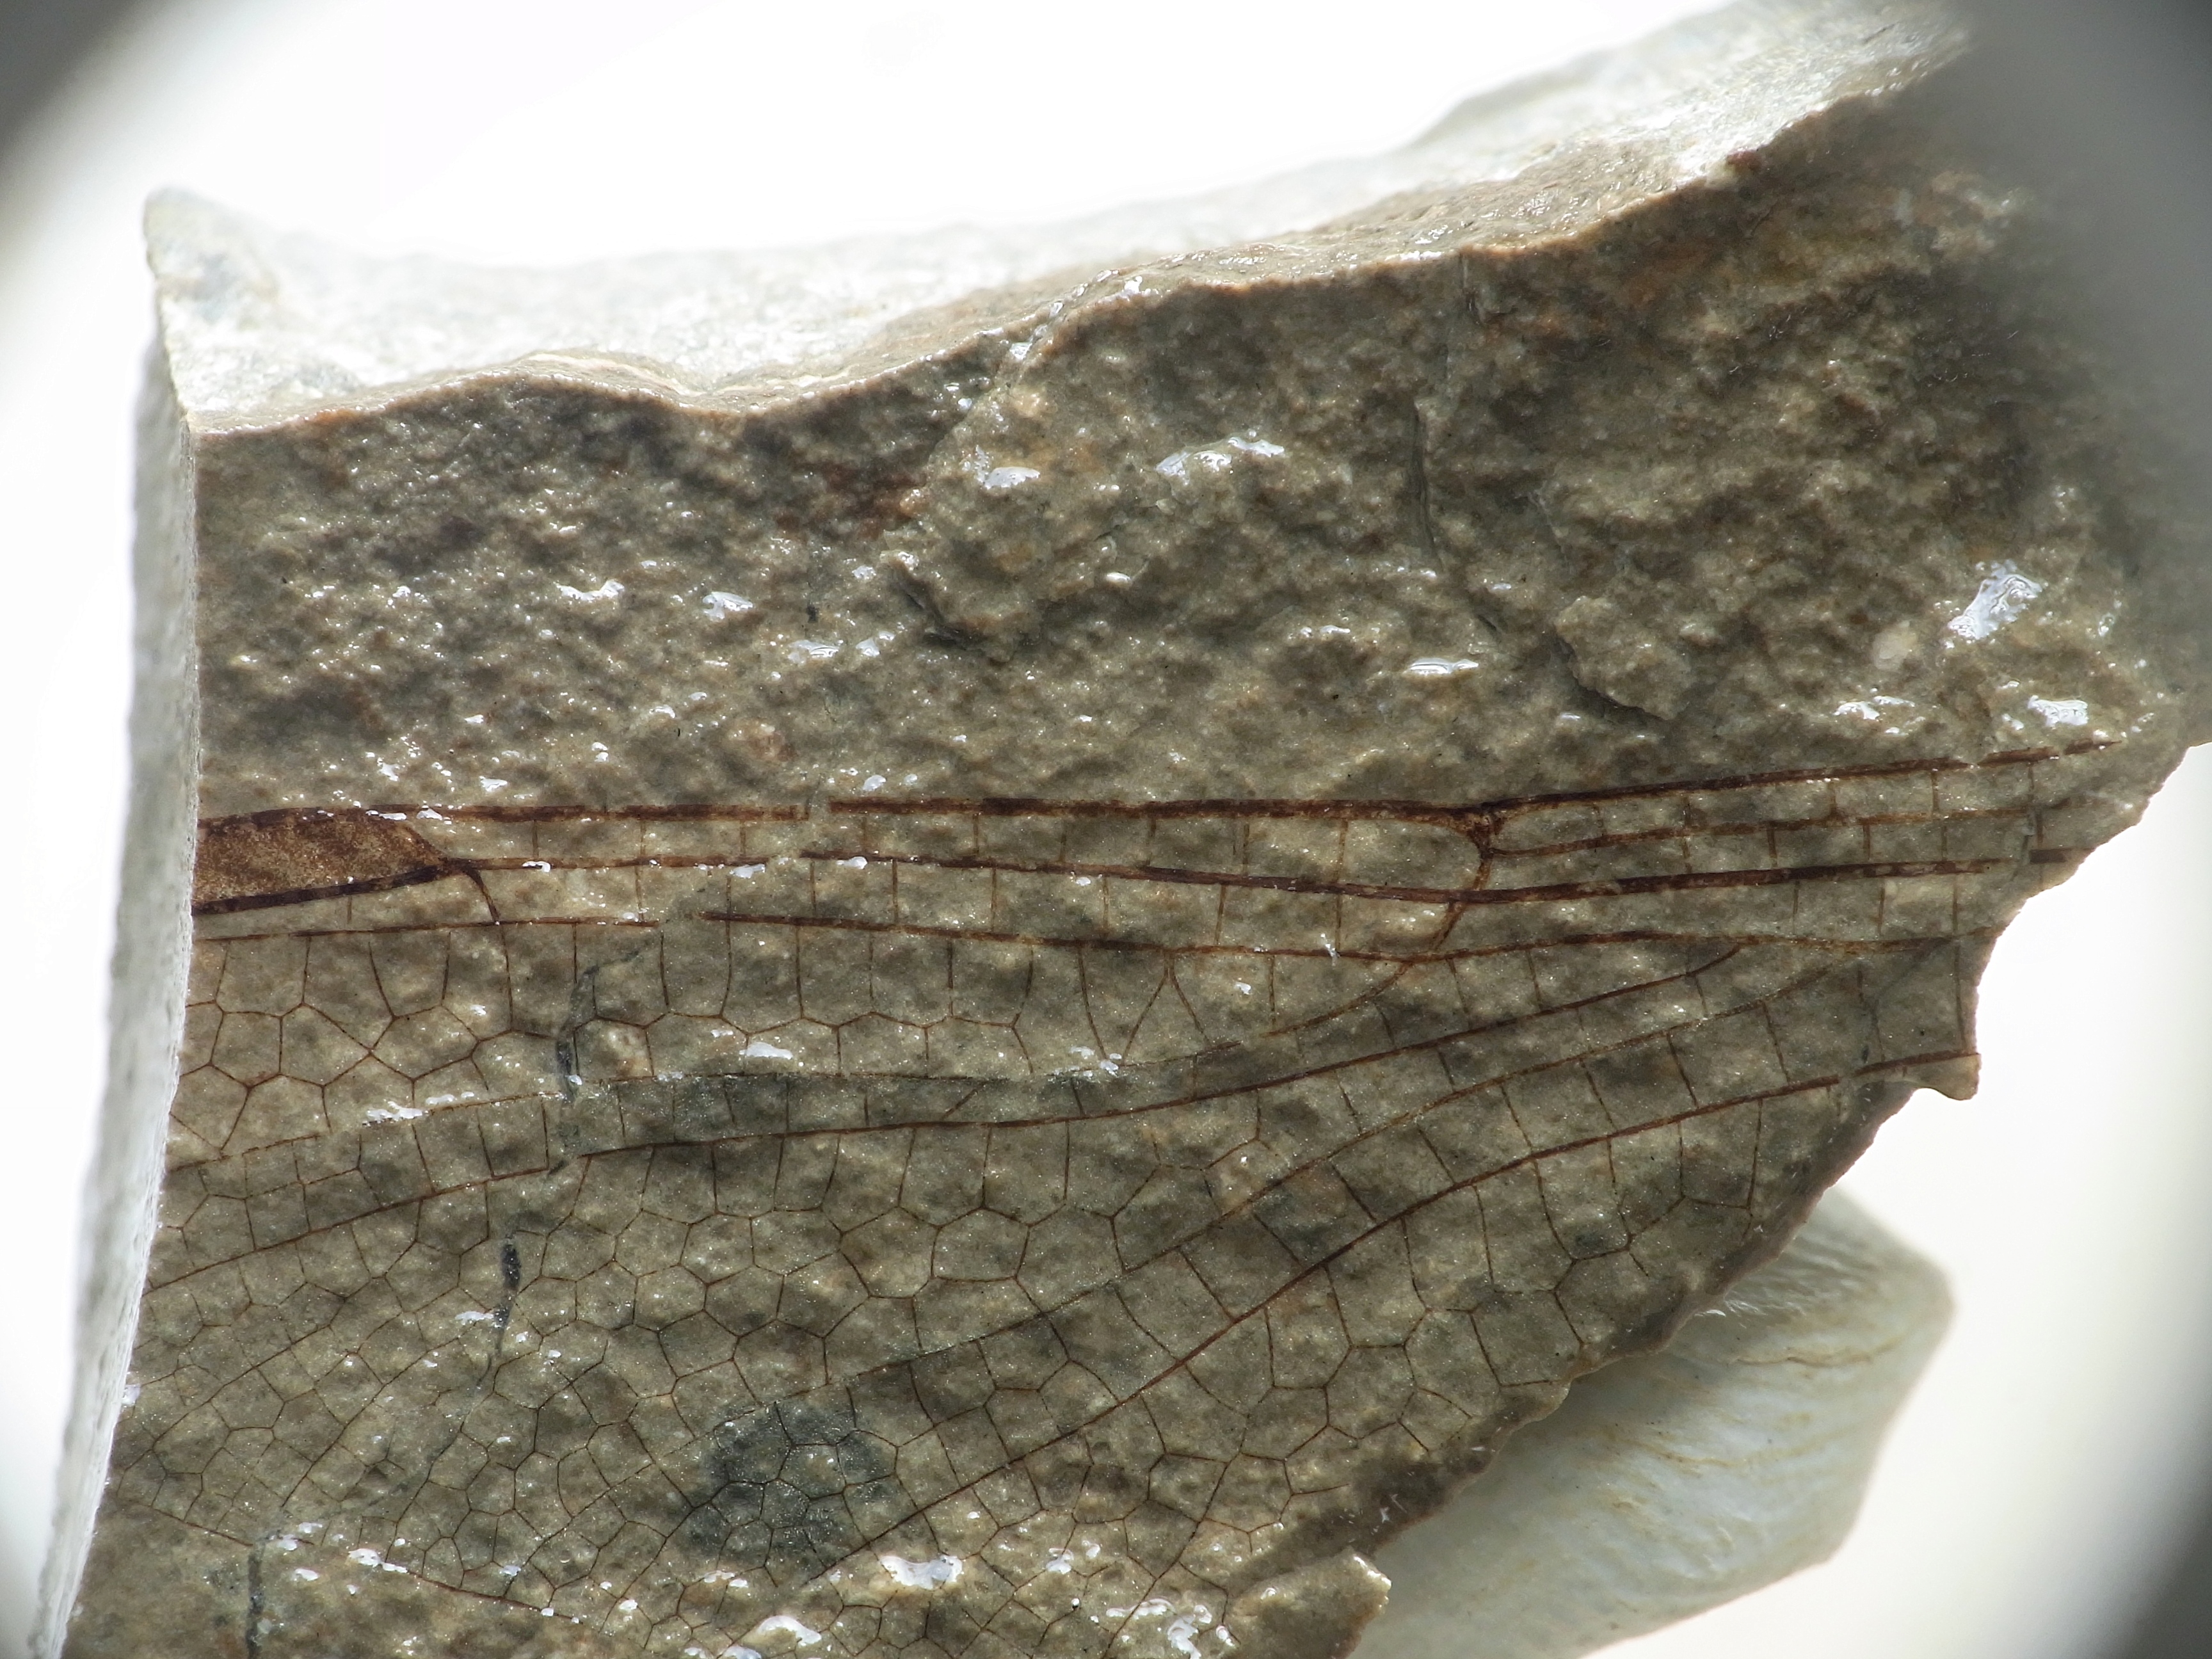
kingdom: Animalia
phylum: Arthropoda
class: Insecta
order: Odonata
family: Liassogomphidae
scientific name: Liassogomphidae
